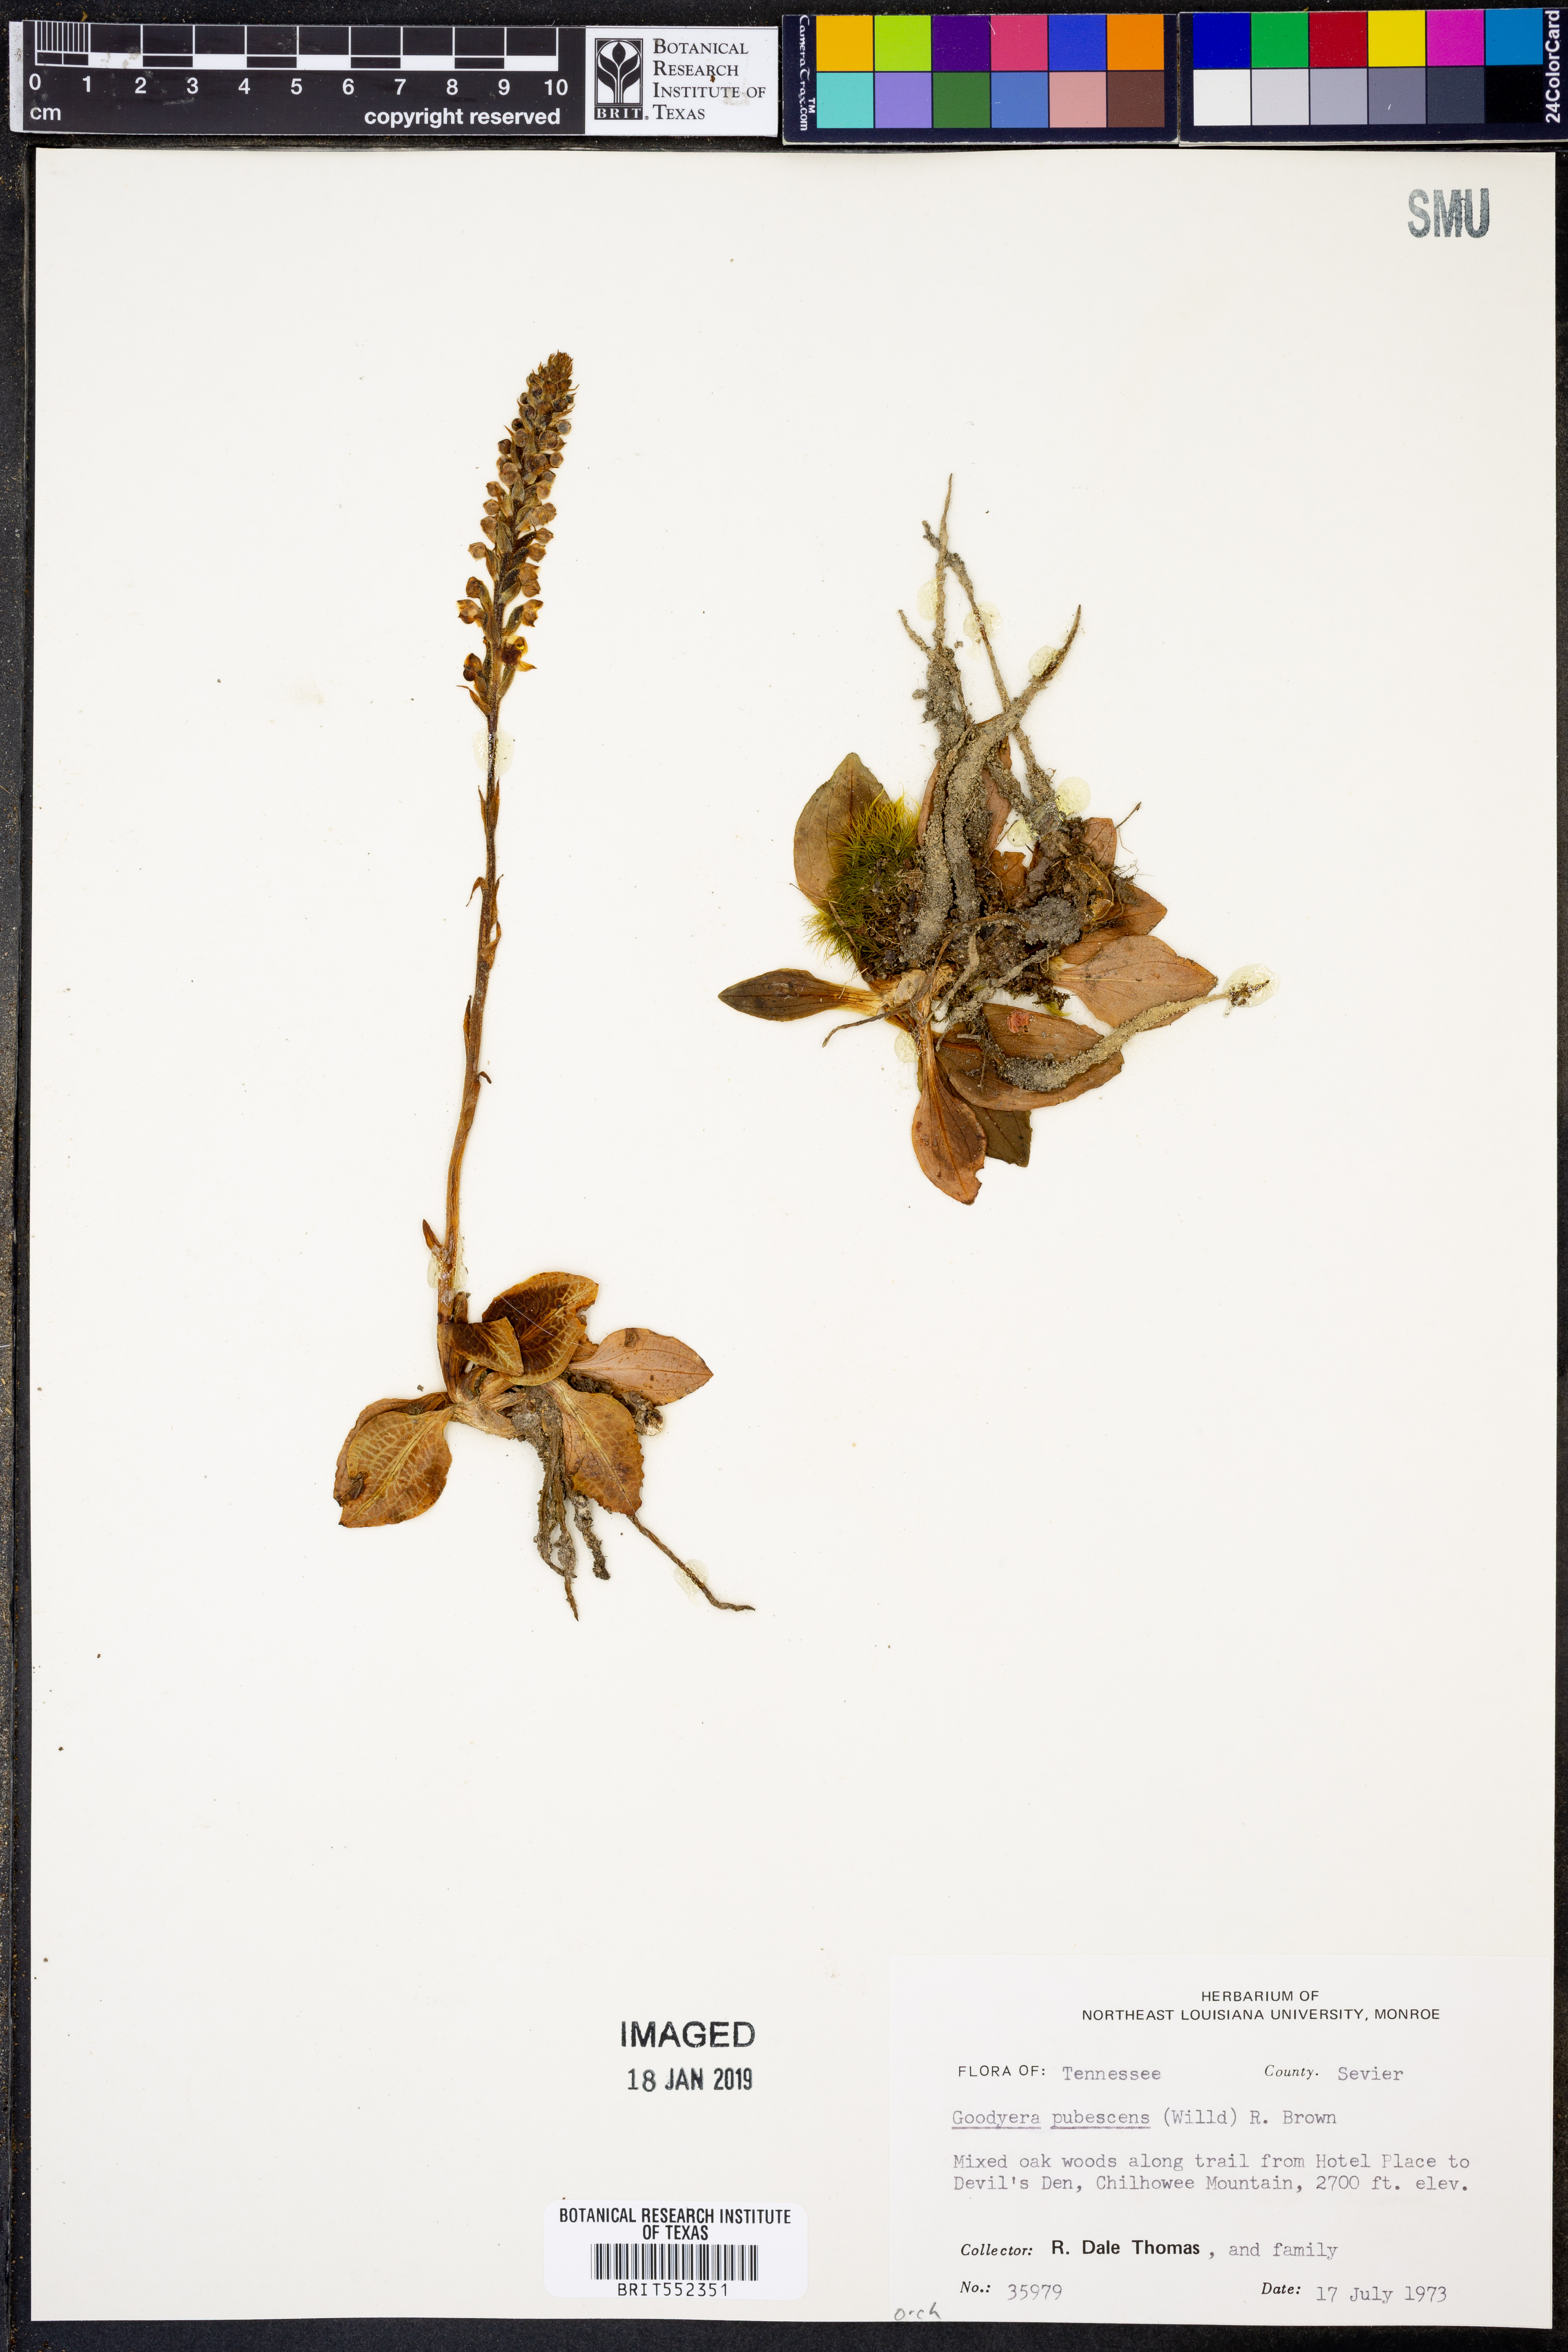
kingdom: Plantae
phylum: Tracheophyta
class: Liliopsida
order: Asparagales
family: Orchidaceae
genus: Goodyera
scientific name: Goodyera pubescens
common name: Downy rattlesnake-plantain
